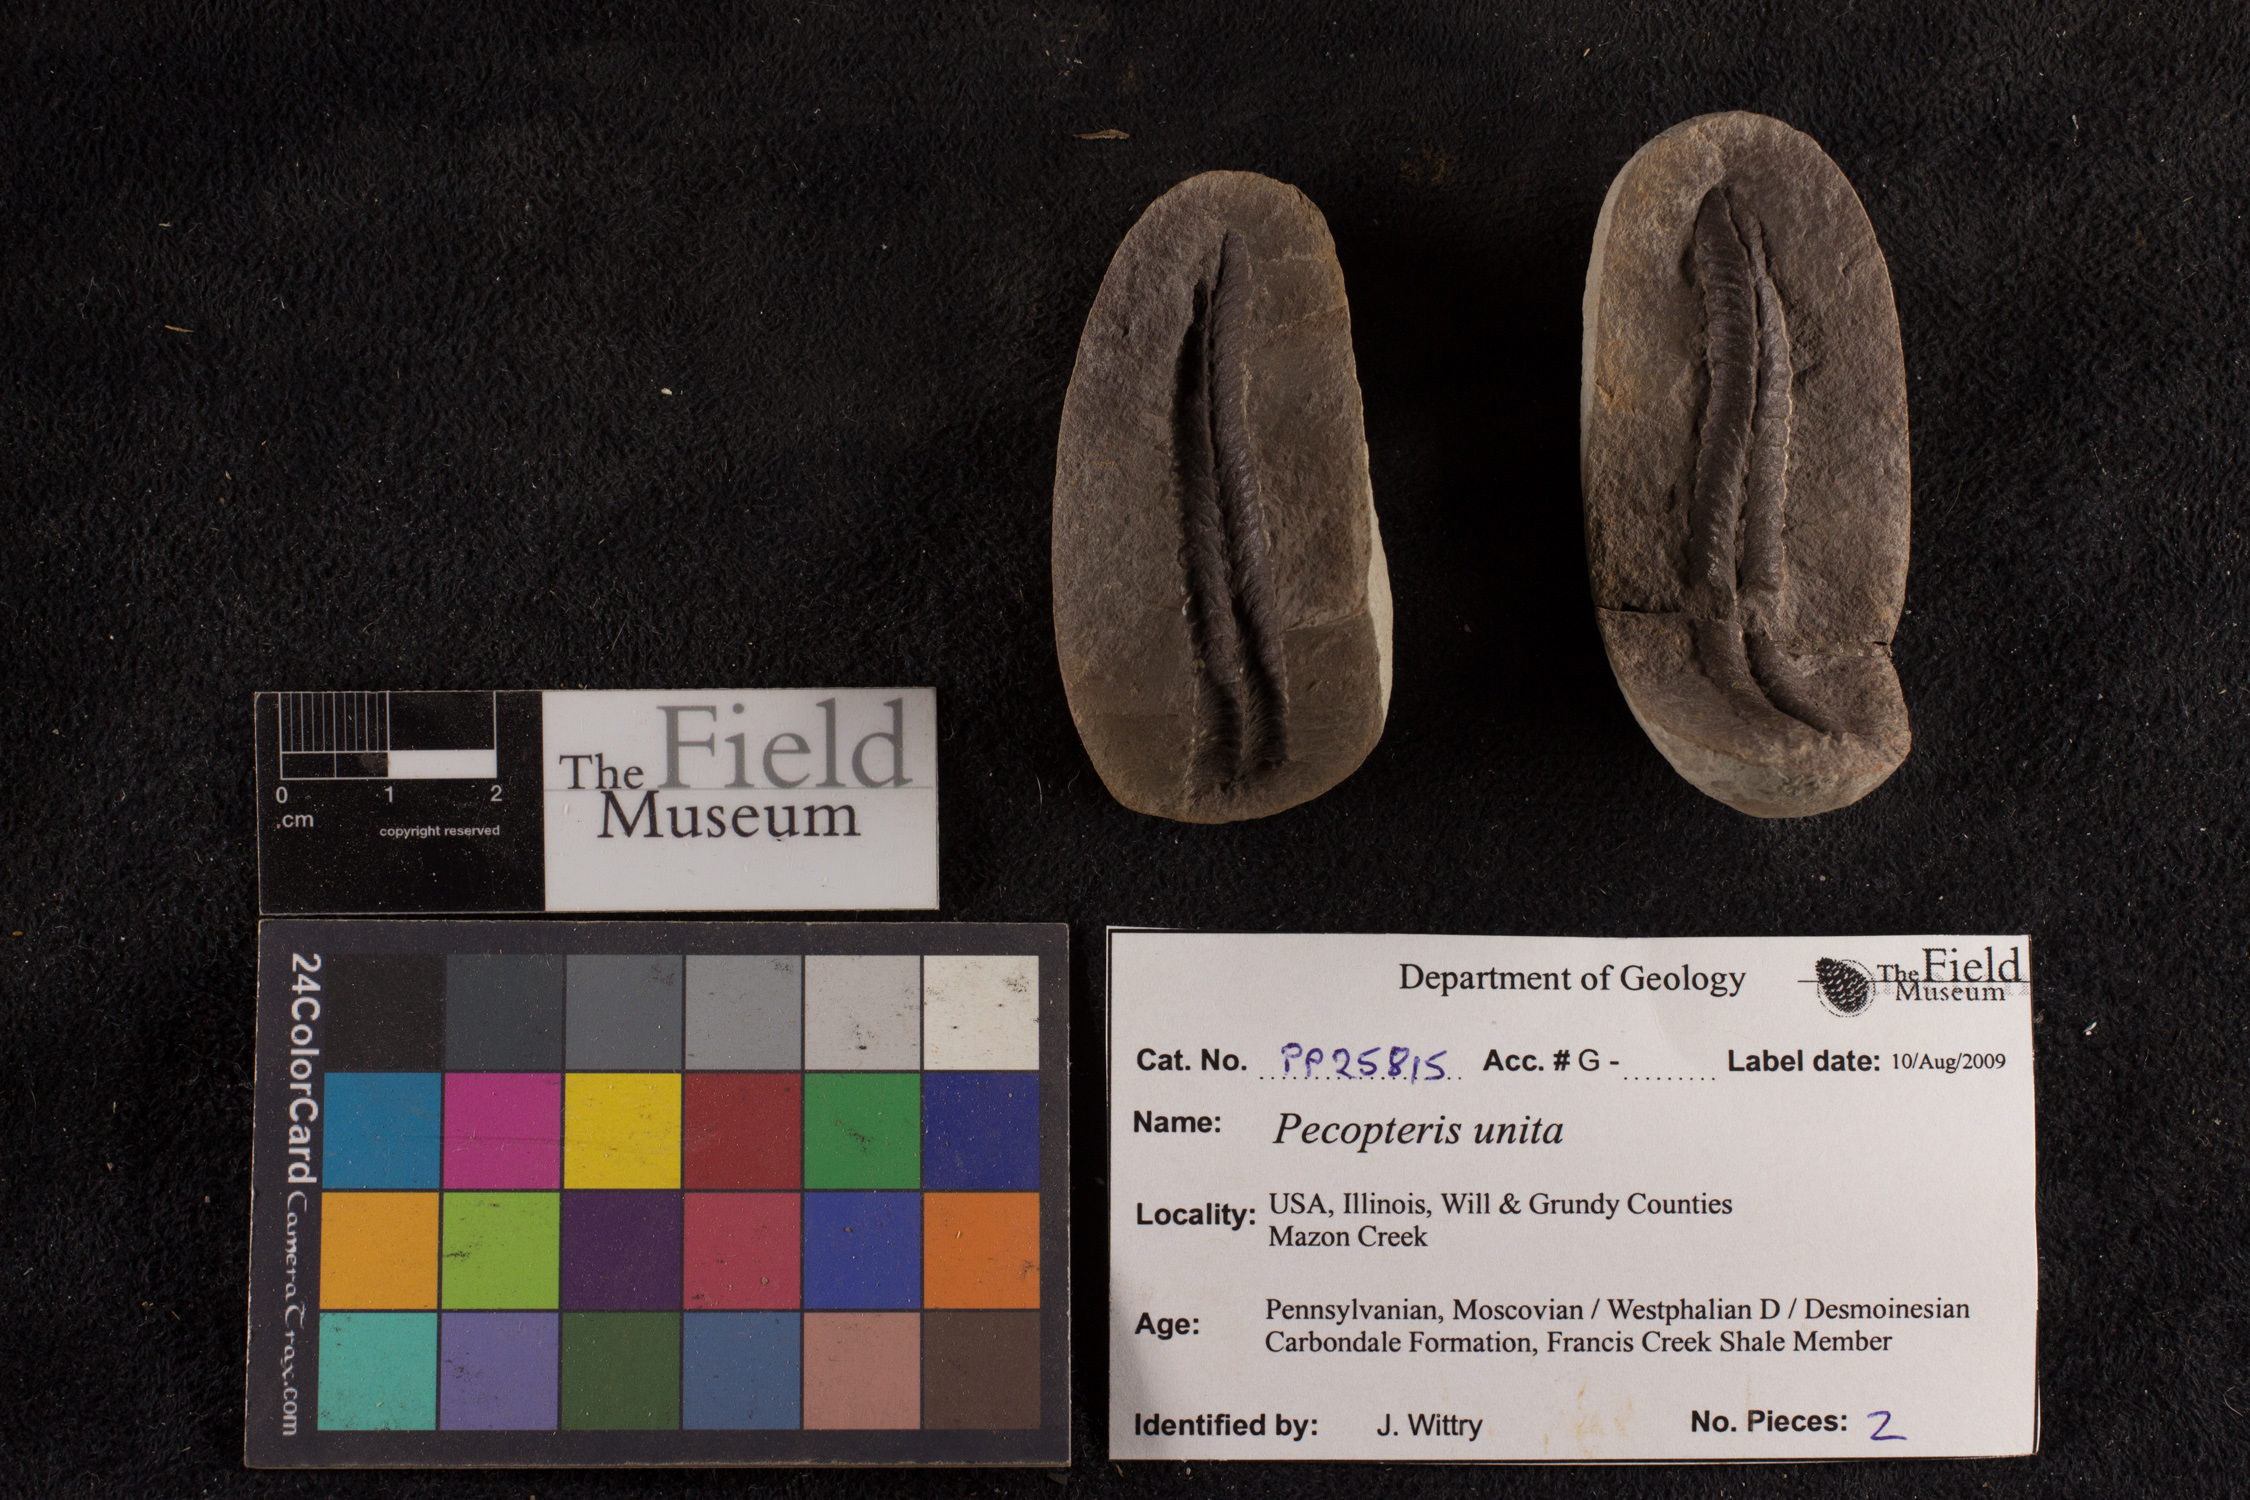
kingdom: Plantae
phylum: Tracheophyta
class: Polypodiopsida
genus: Diplazites
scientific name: Diplazites
